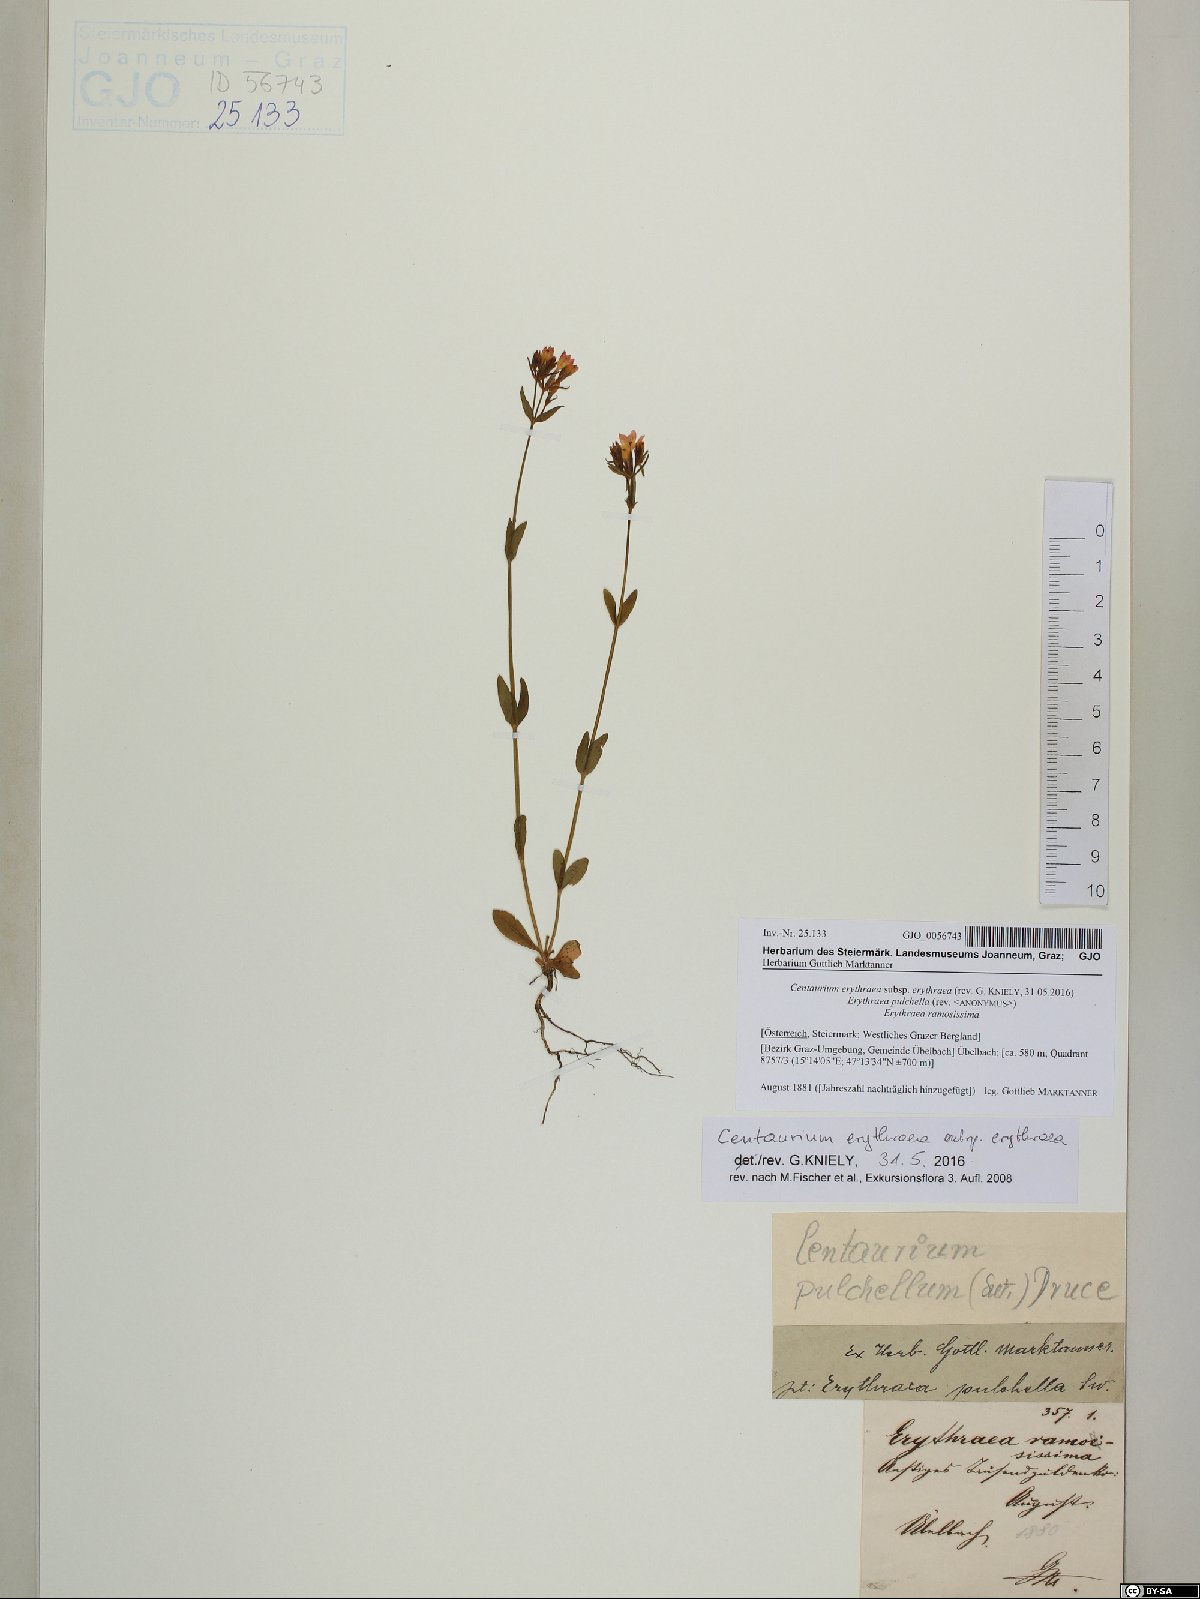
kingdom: Plantae
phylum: Tracheophyta
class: Magnoliopsida
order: Gentianales
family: Gentianaceae
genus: Centaurium
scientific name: Centaurium erythraea
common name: Common centaury
